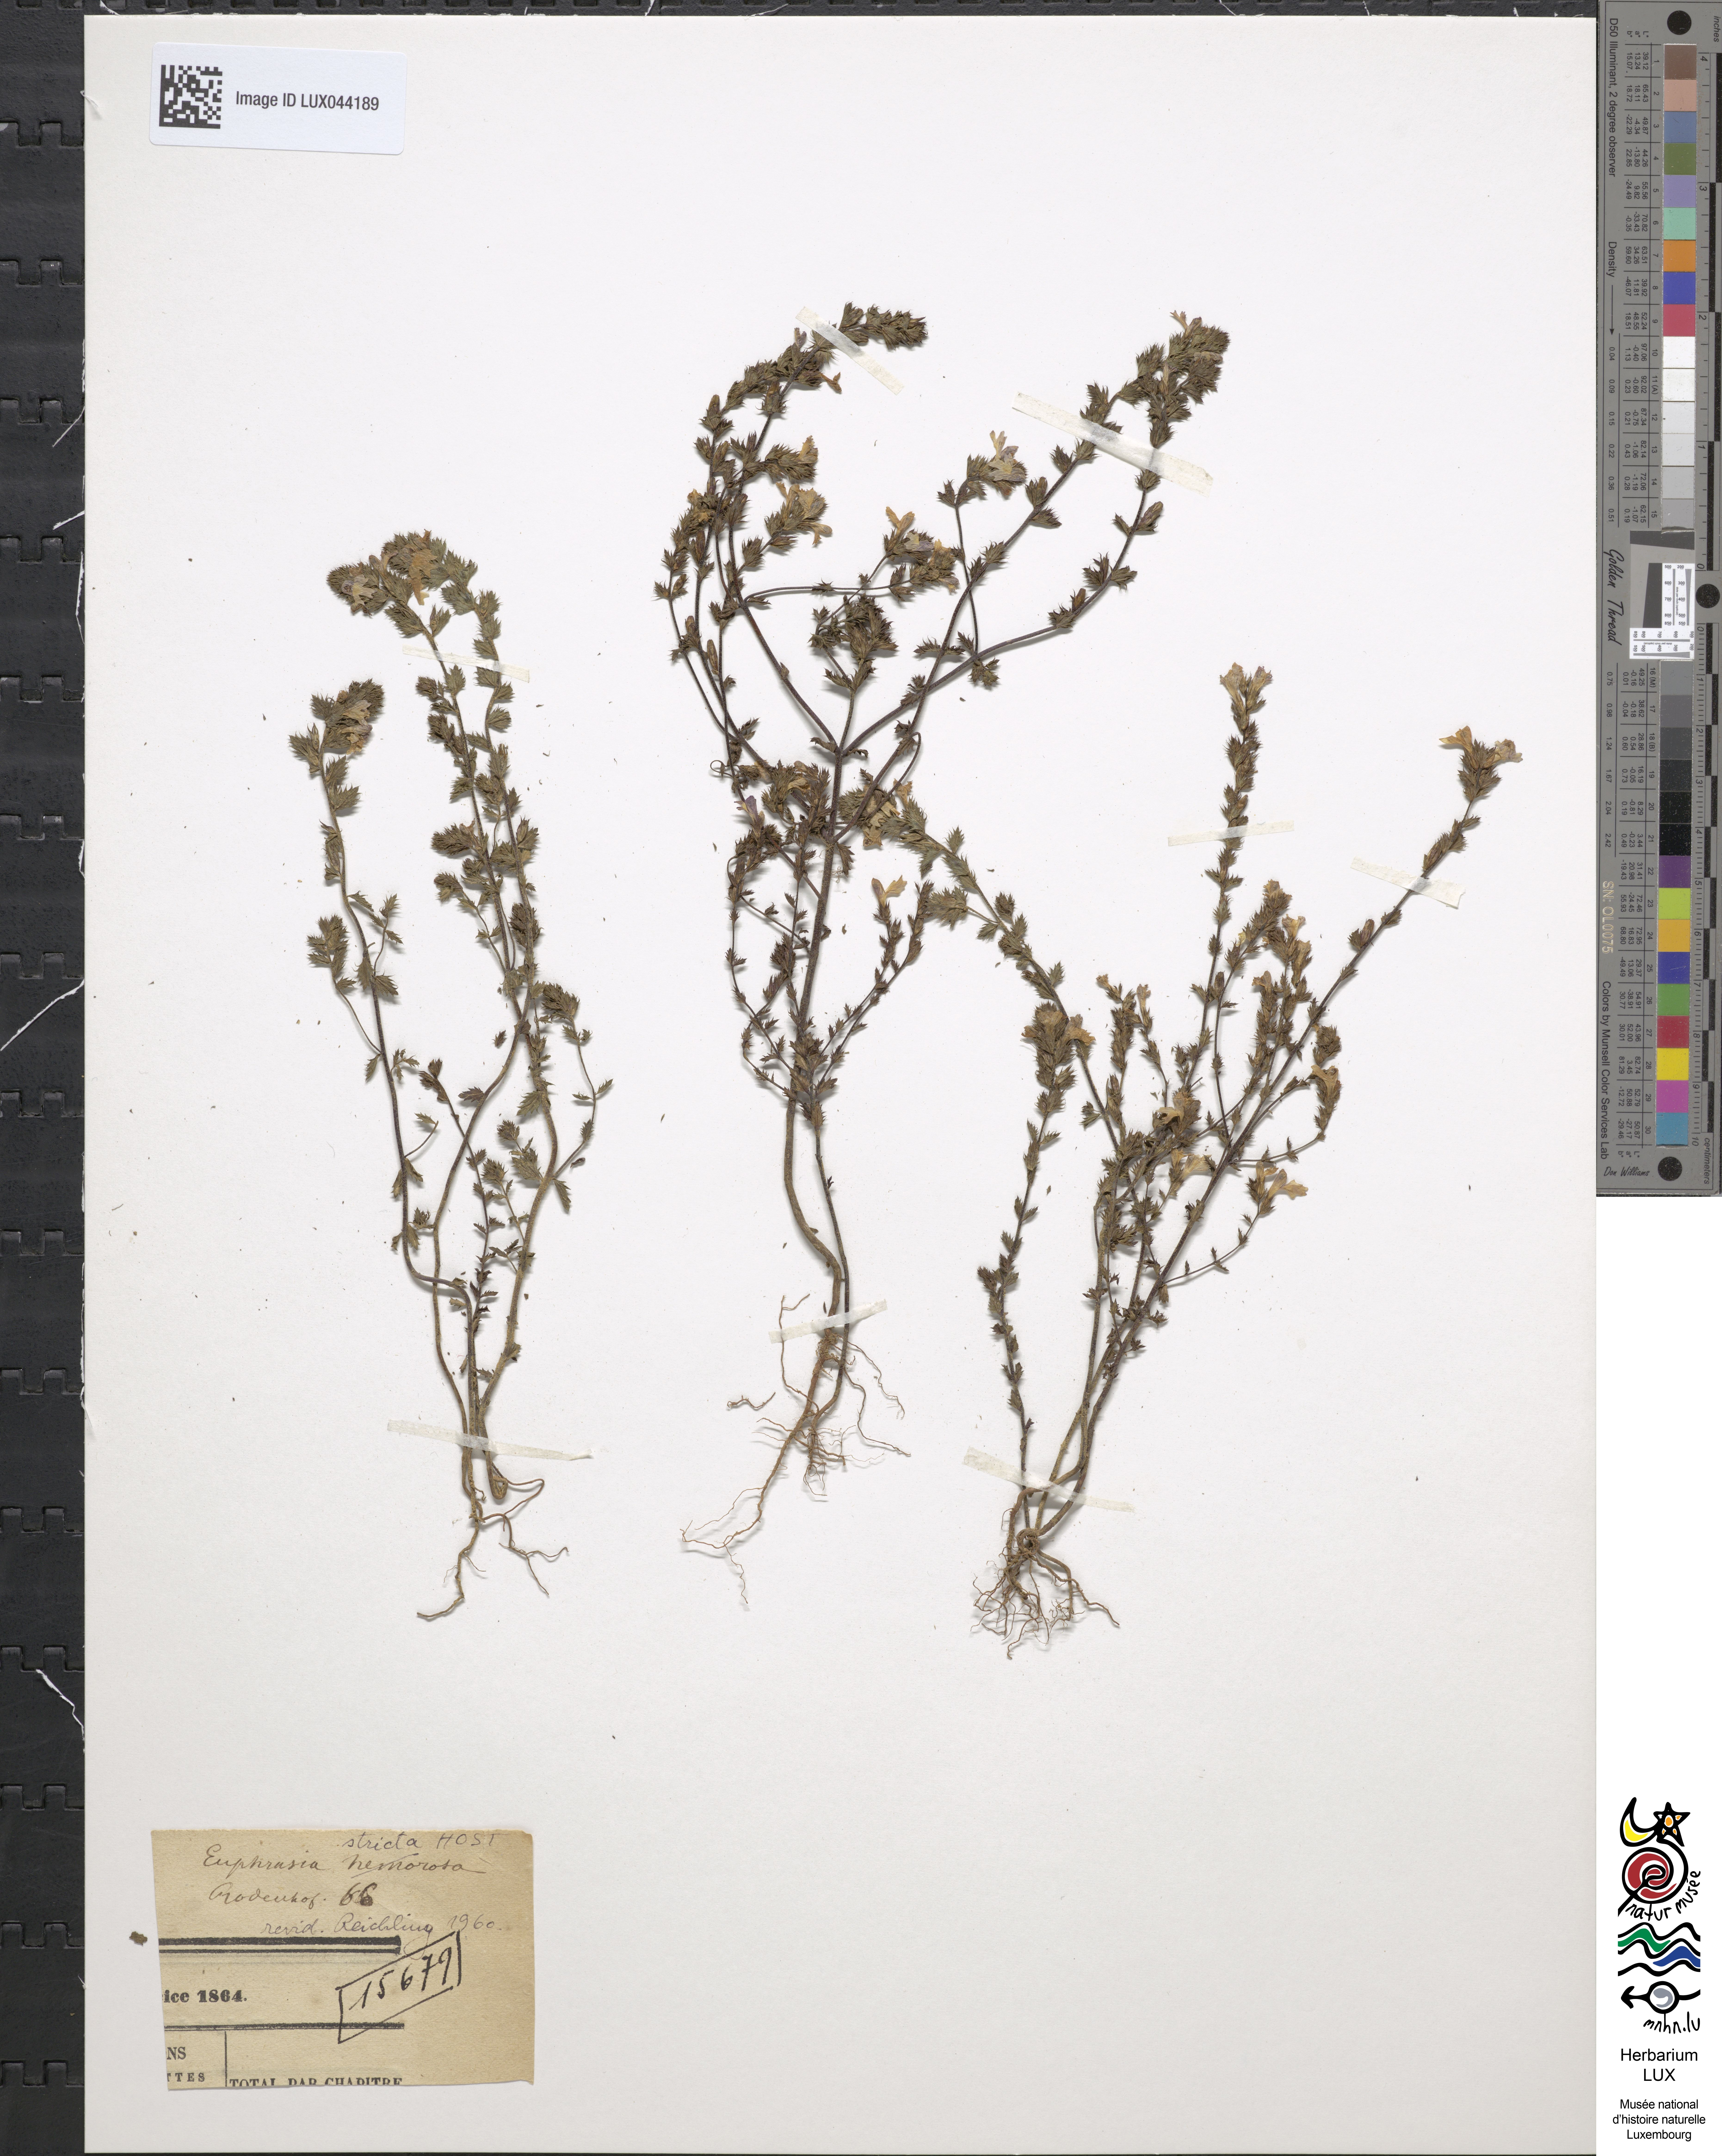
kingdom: Plantae
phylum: Tracheophyta
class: Magnoliopsida
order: Lamiales
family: Orobanchaceae
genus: Euphrasia
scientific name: Euphrasia nemorosa
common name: Common eyebright
